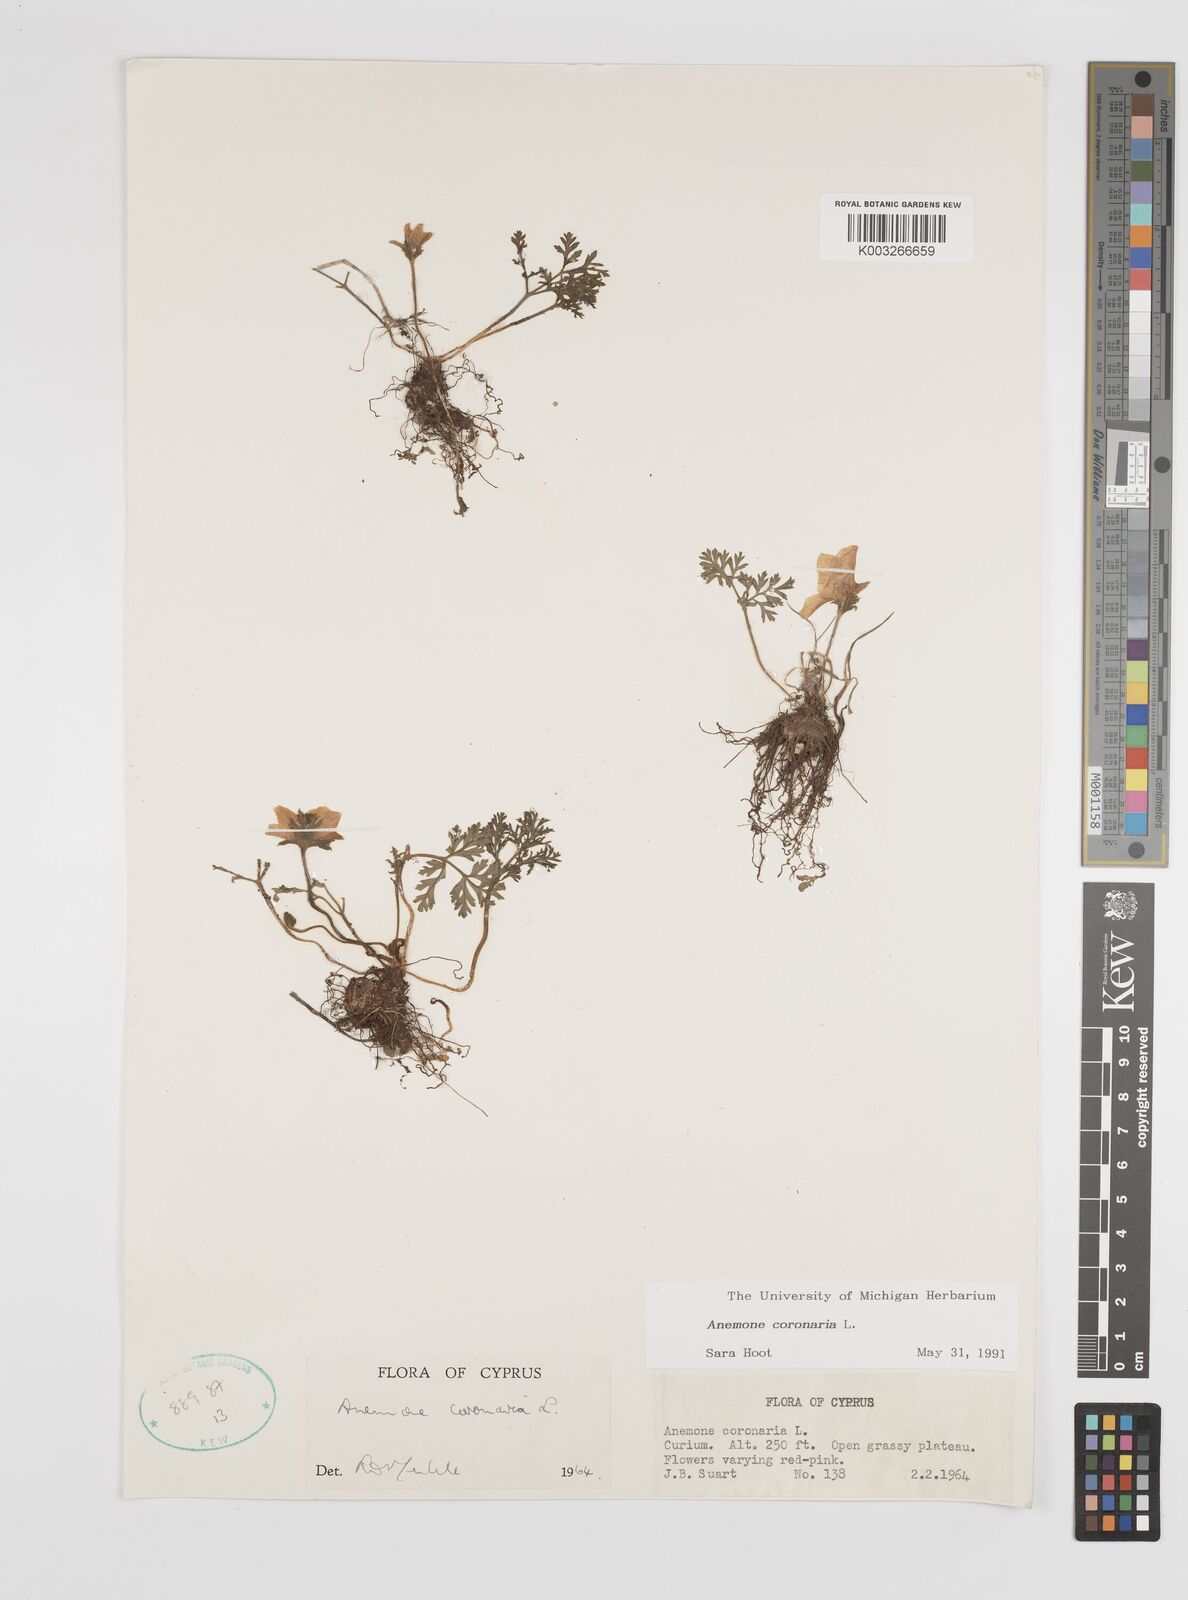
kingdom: Plantae
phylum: Tracheophyta
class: Magnoliopsida
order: Ranunculales
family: Ranunculaceae
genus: Anemone
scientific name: Anemone coronaria
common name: Poppy anemone
